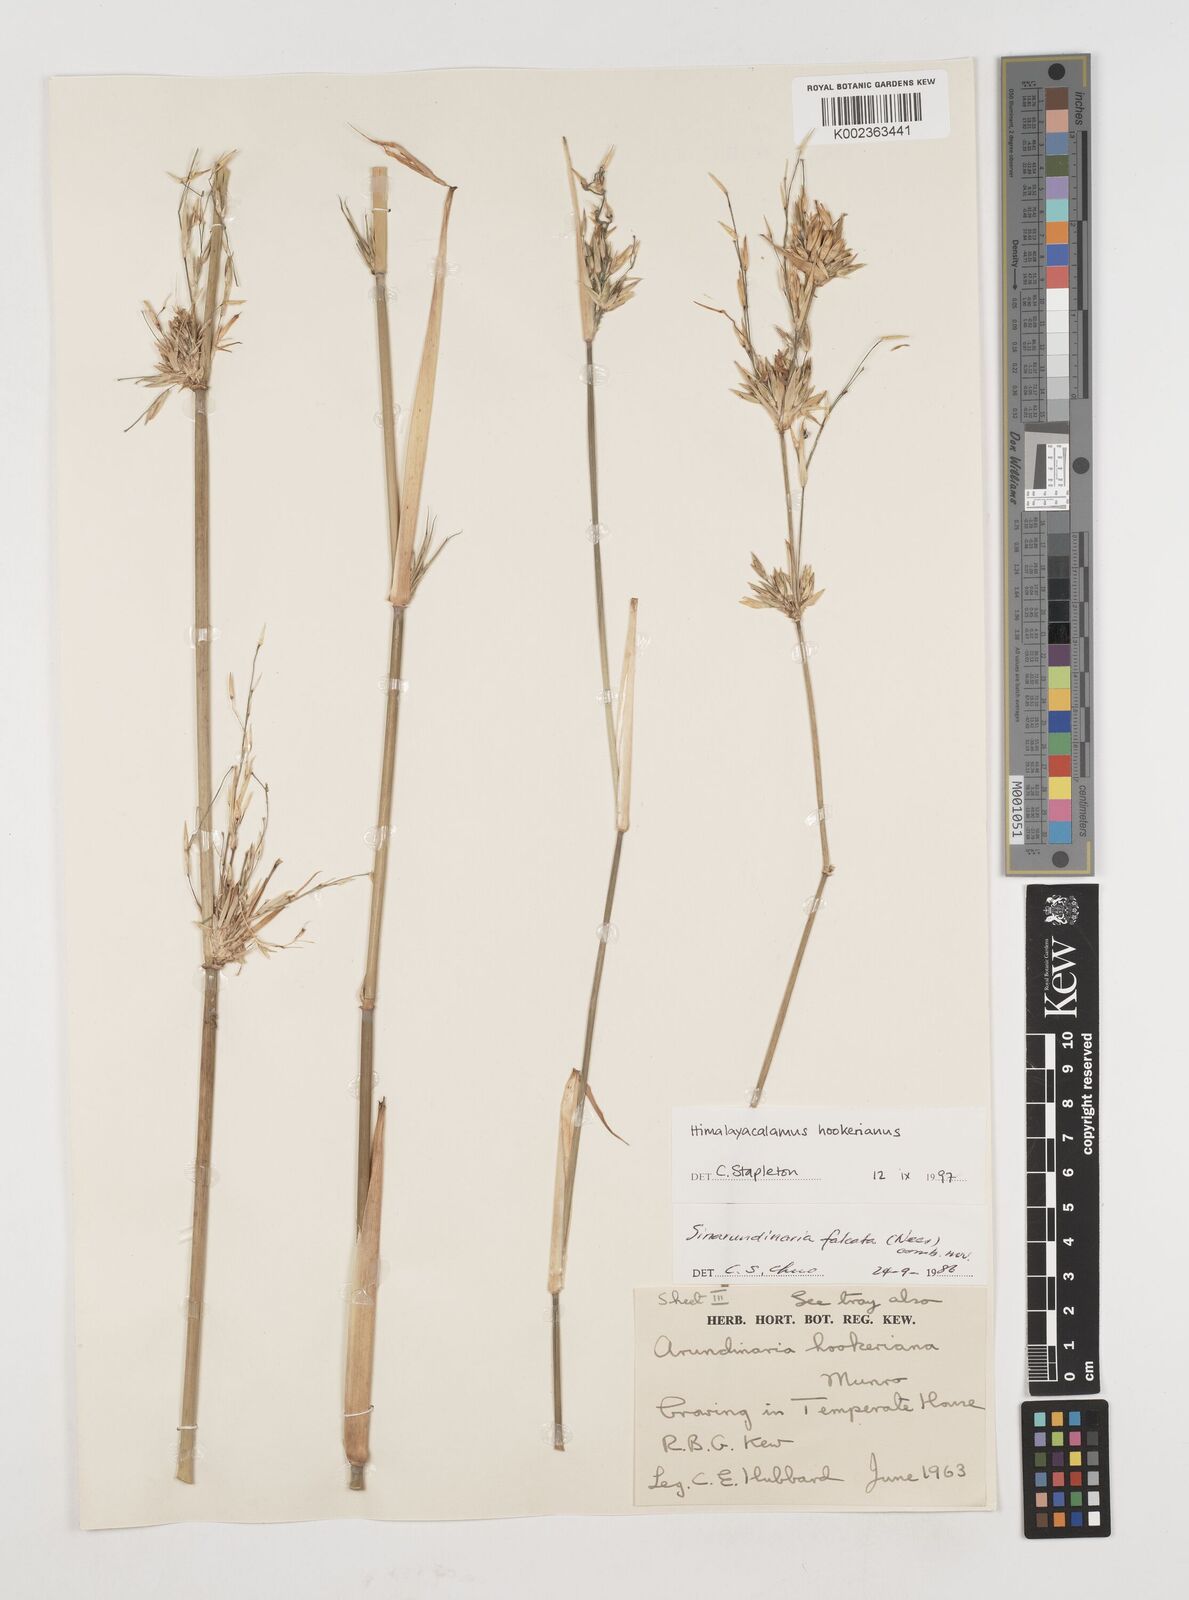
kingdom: Plantae
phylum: Tracheophyta
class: Liliopsida
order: Poales
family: Poaceae
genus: Himalayacalamus
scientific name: Himalayacalamus hookerianus
